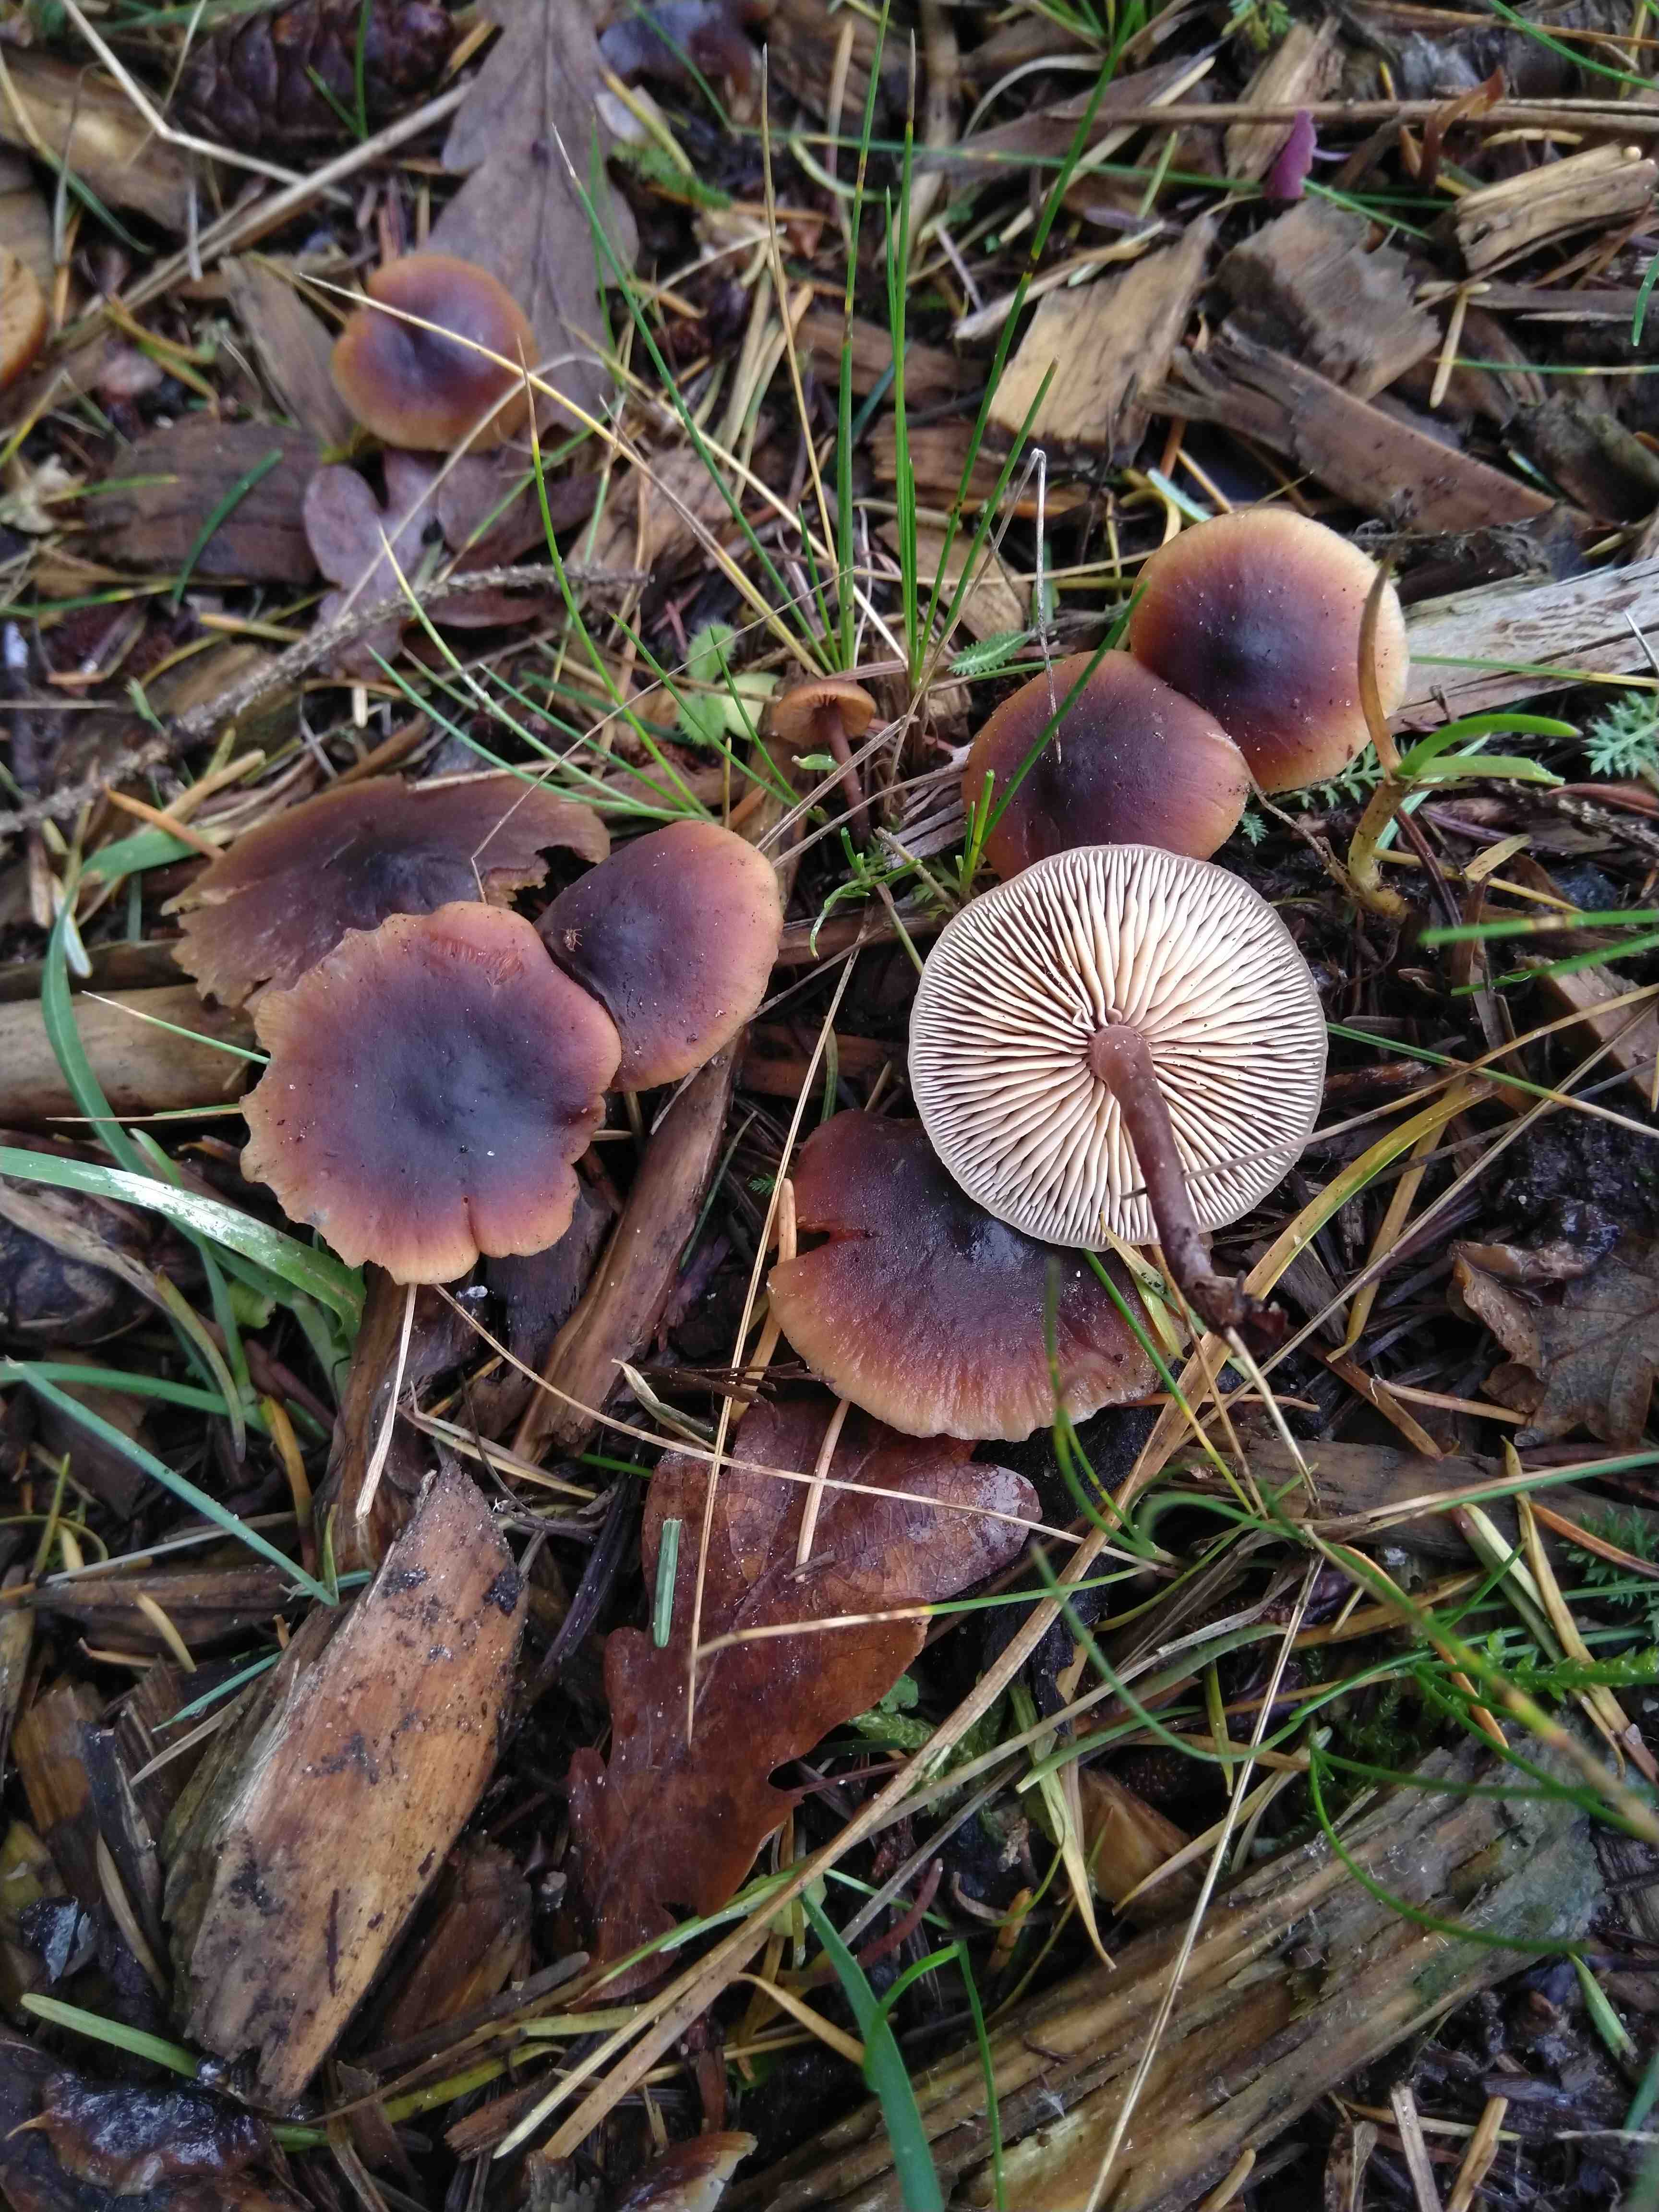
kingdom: Fungi
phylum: Basidiomycota
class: Agaricomycetes
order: Agaricales
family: Macrocystidiaceae
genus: Macrocystidia
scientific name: Macrocystidia cucumis
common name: agurkehat
